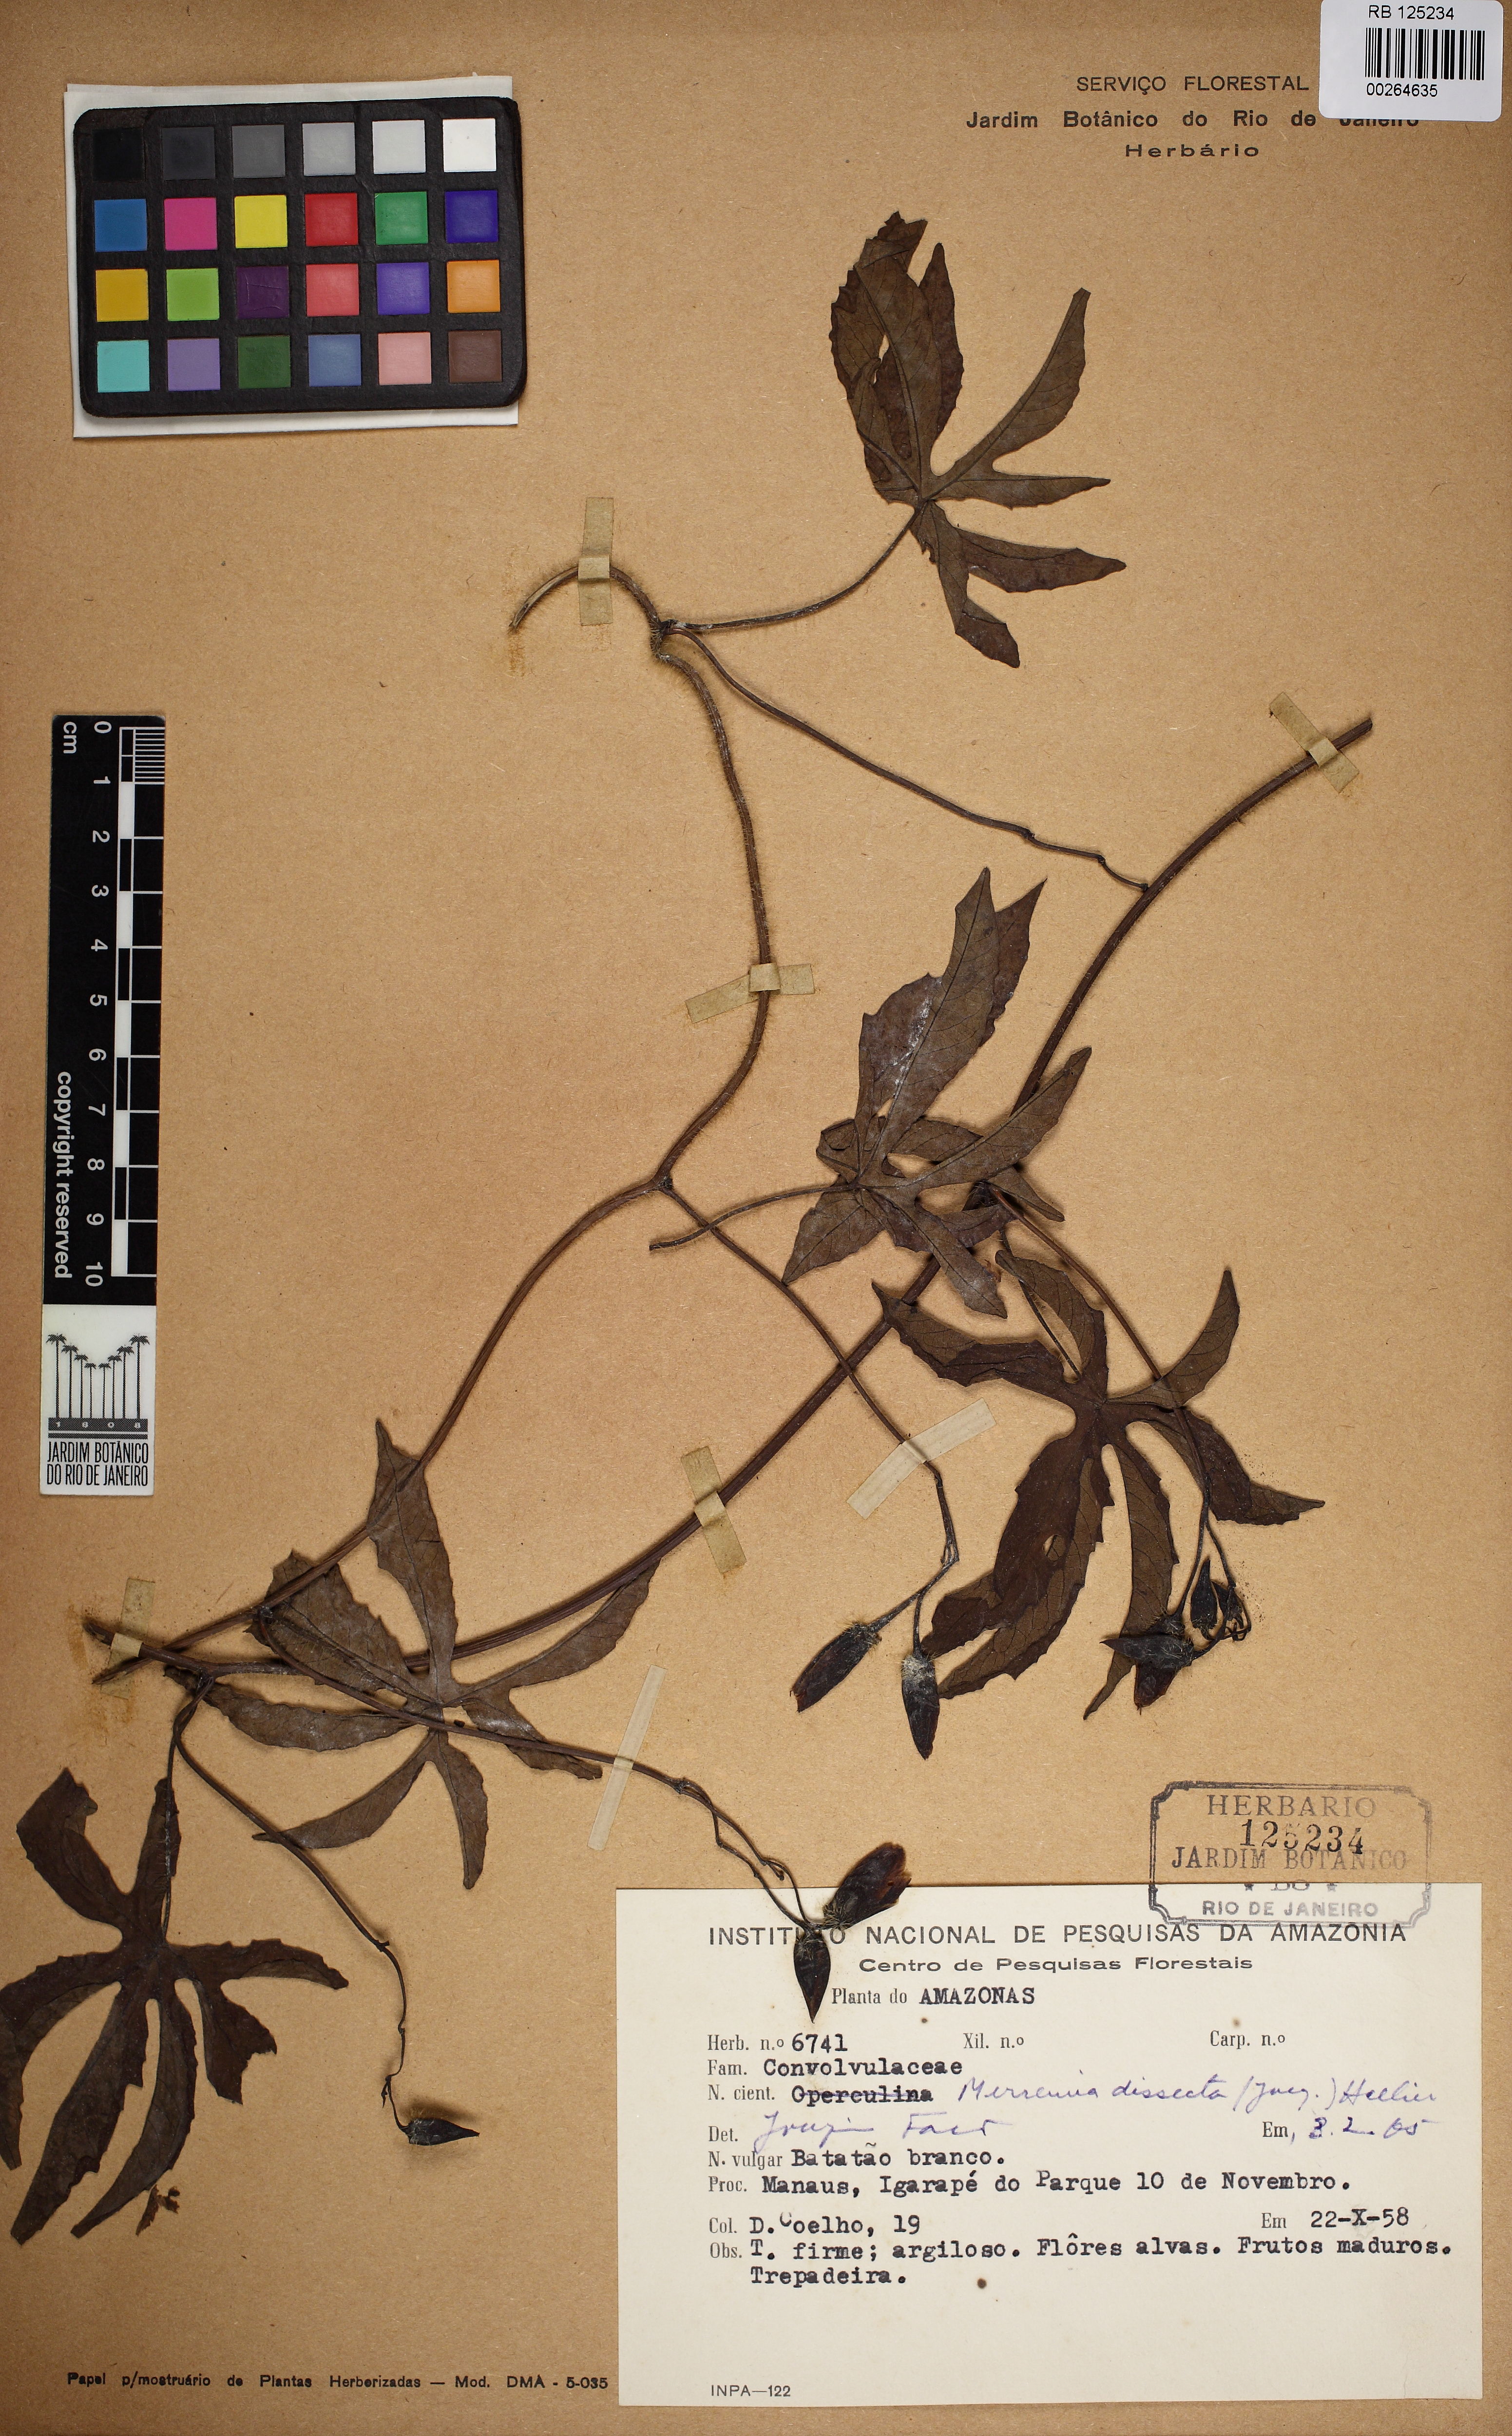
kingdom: Plantae
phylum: Tracheophyta
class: Magnoliopsida
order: Solanales
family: Convolvulaceae
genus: Distimake
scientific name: Distimake dissectus
